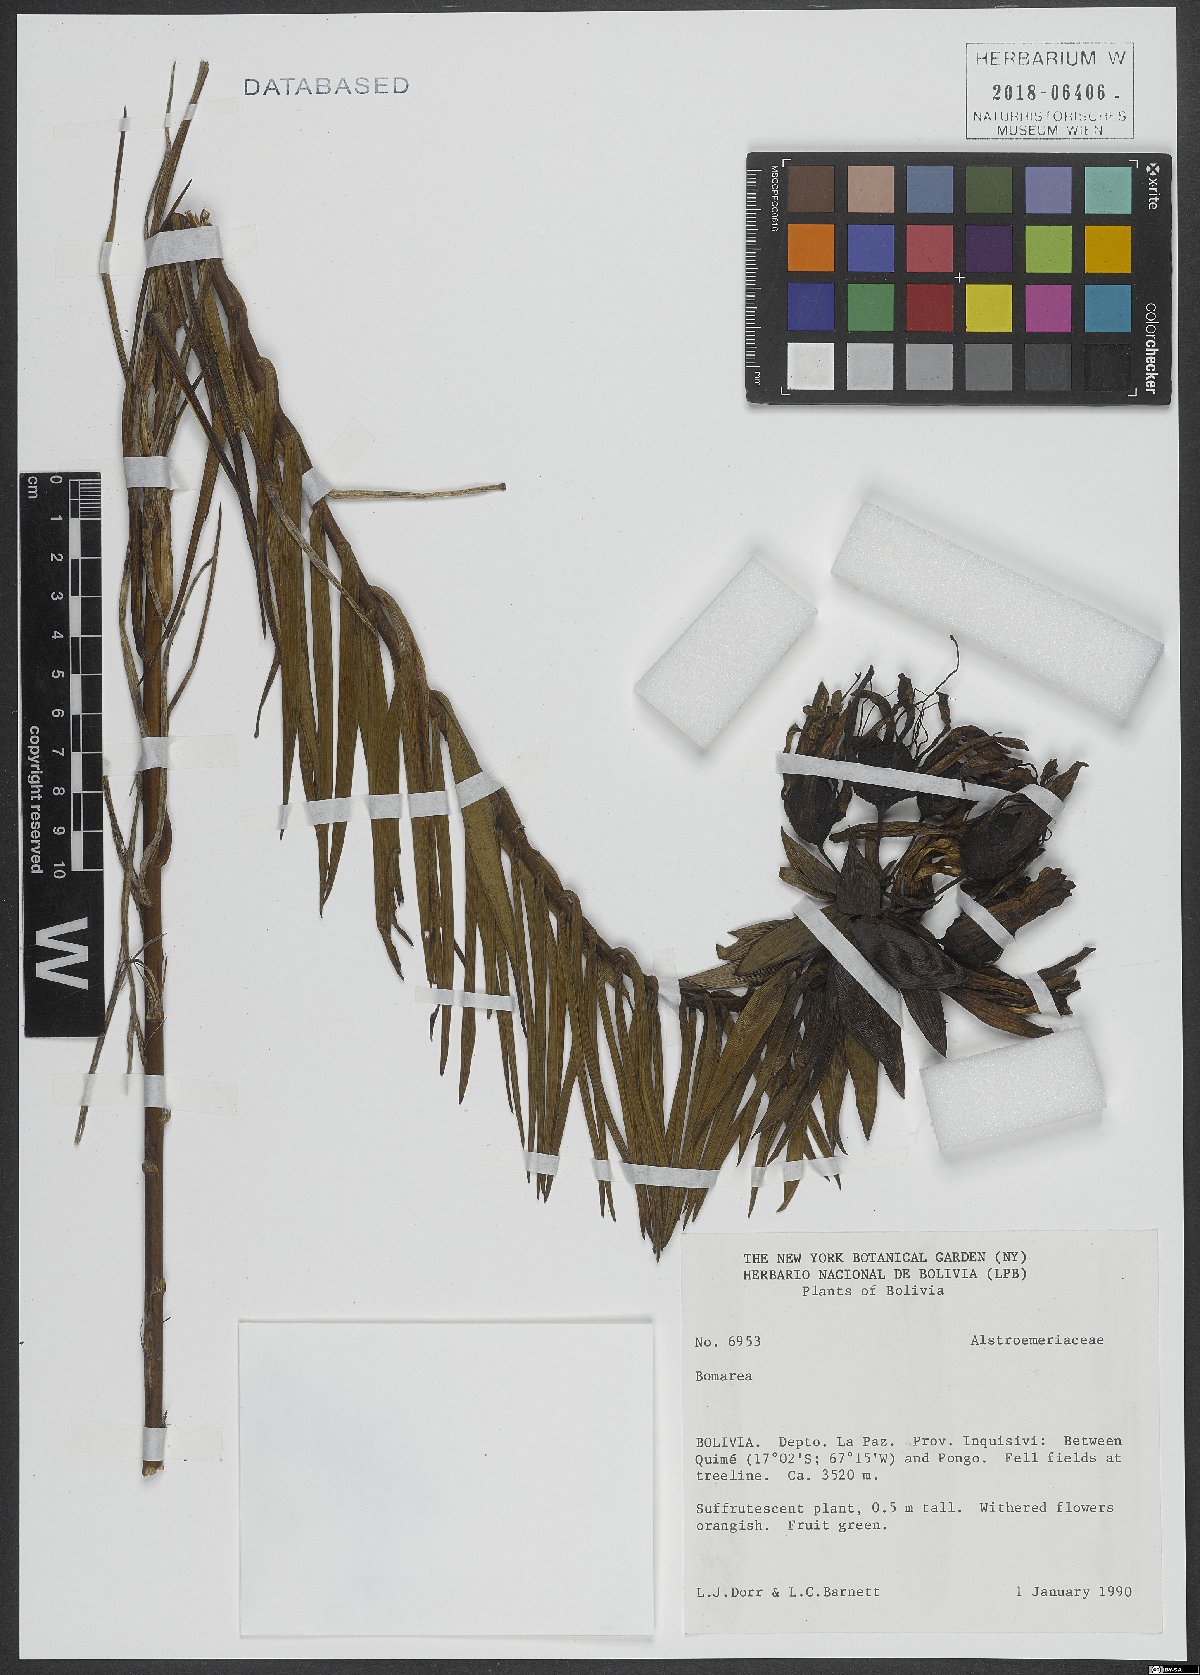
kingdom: Plantae
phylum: Tracheophyta
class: Liliopsida
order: Liliales
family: Alstroemeriaceae
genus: Bomarea
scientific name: Bomarea
